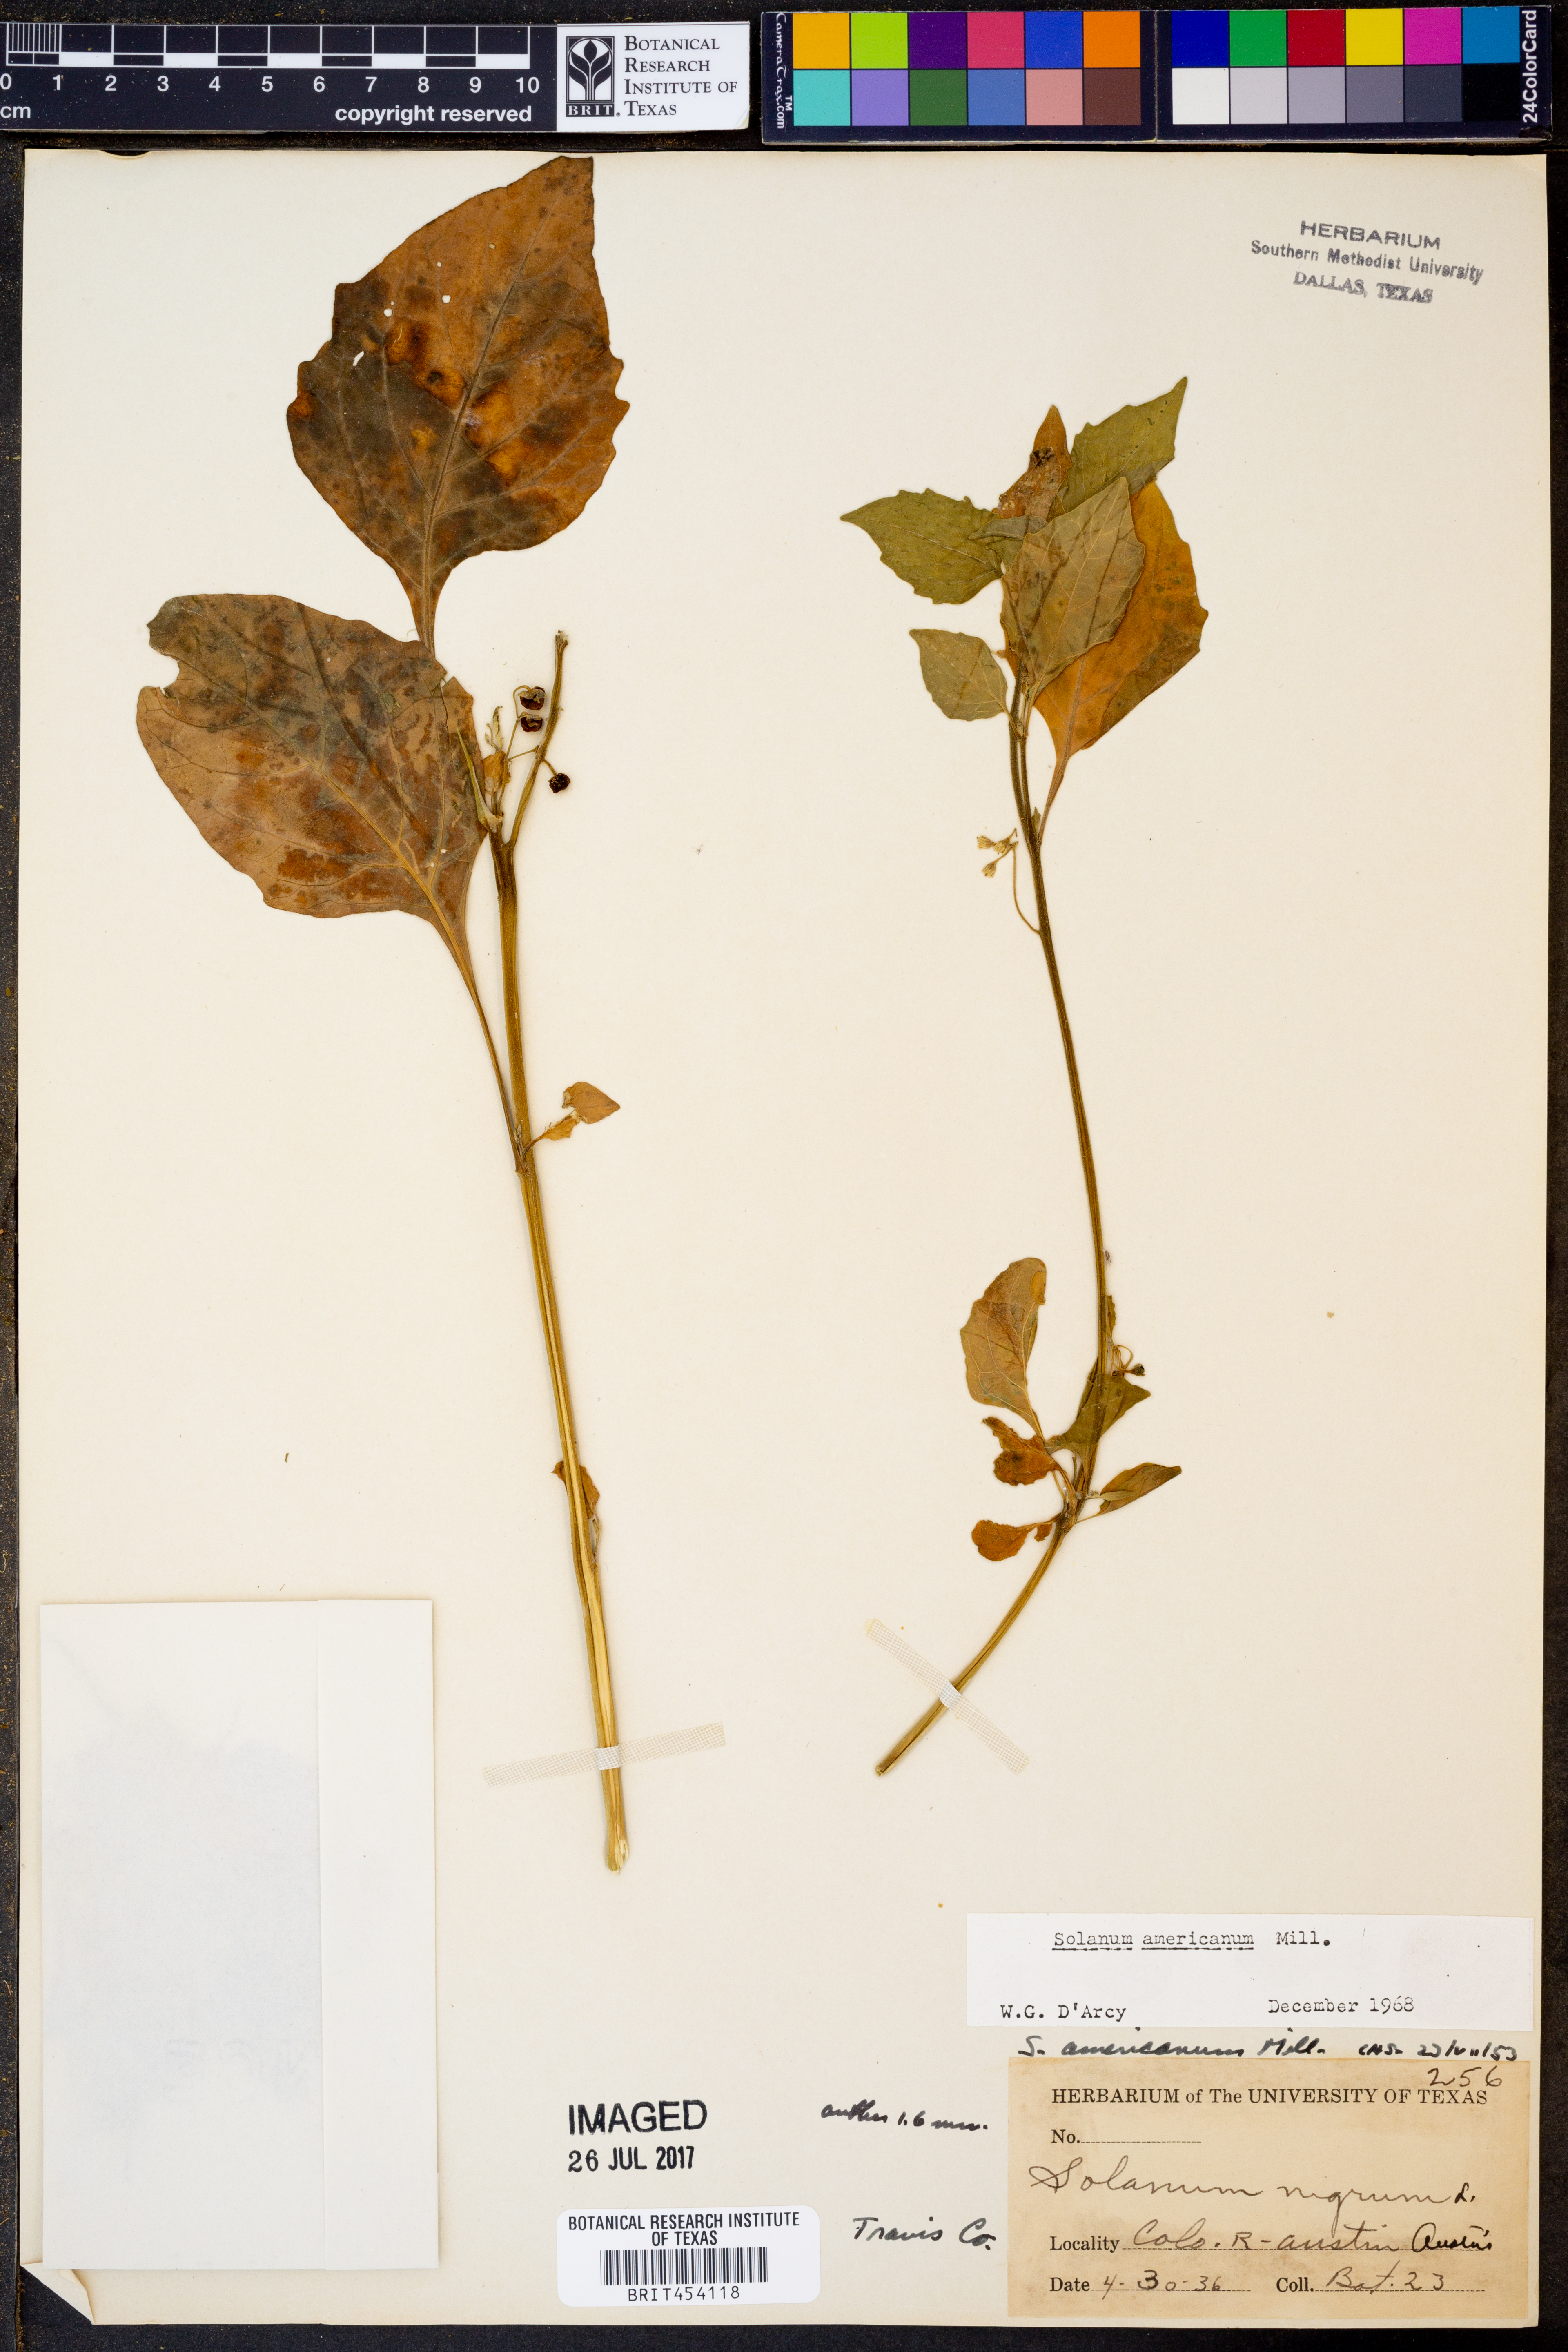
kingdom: Plantae
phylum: Tracheophyta
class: Magnoliopsida
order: Solanales
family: Solanaceae
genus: Solanum
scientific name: Solanum americanum
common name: American black nightshade
